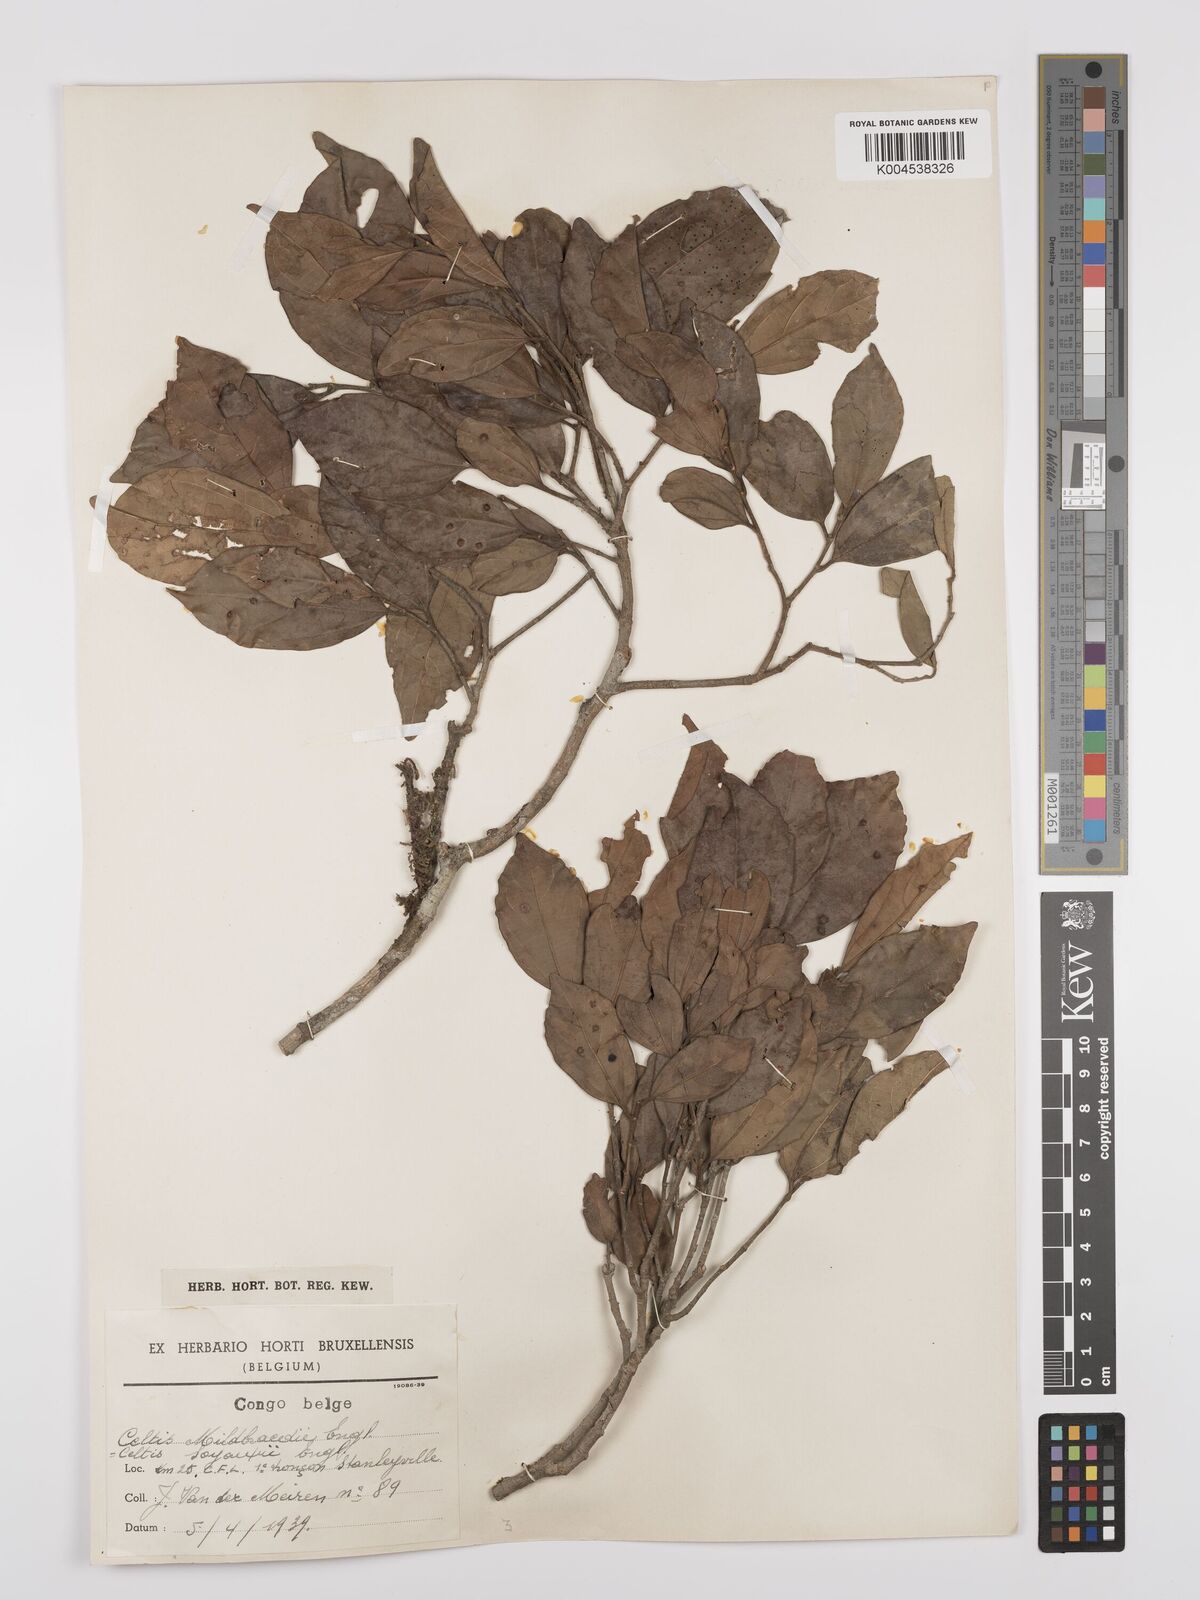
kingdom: Plantae
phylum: Tracheophyta
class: Magnoliopsida
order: Rosales
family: Cannabaceae
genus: Celtis
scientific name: Celtis mildbraedii
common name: Red-fruited stinkwood
